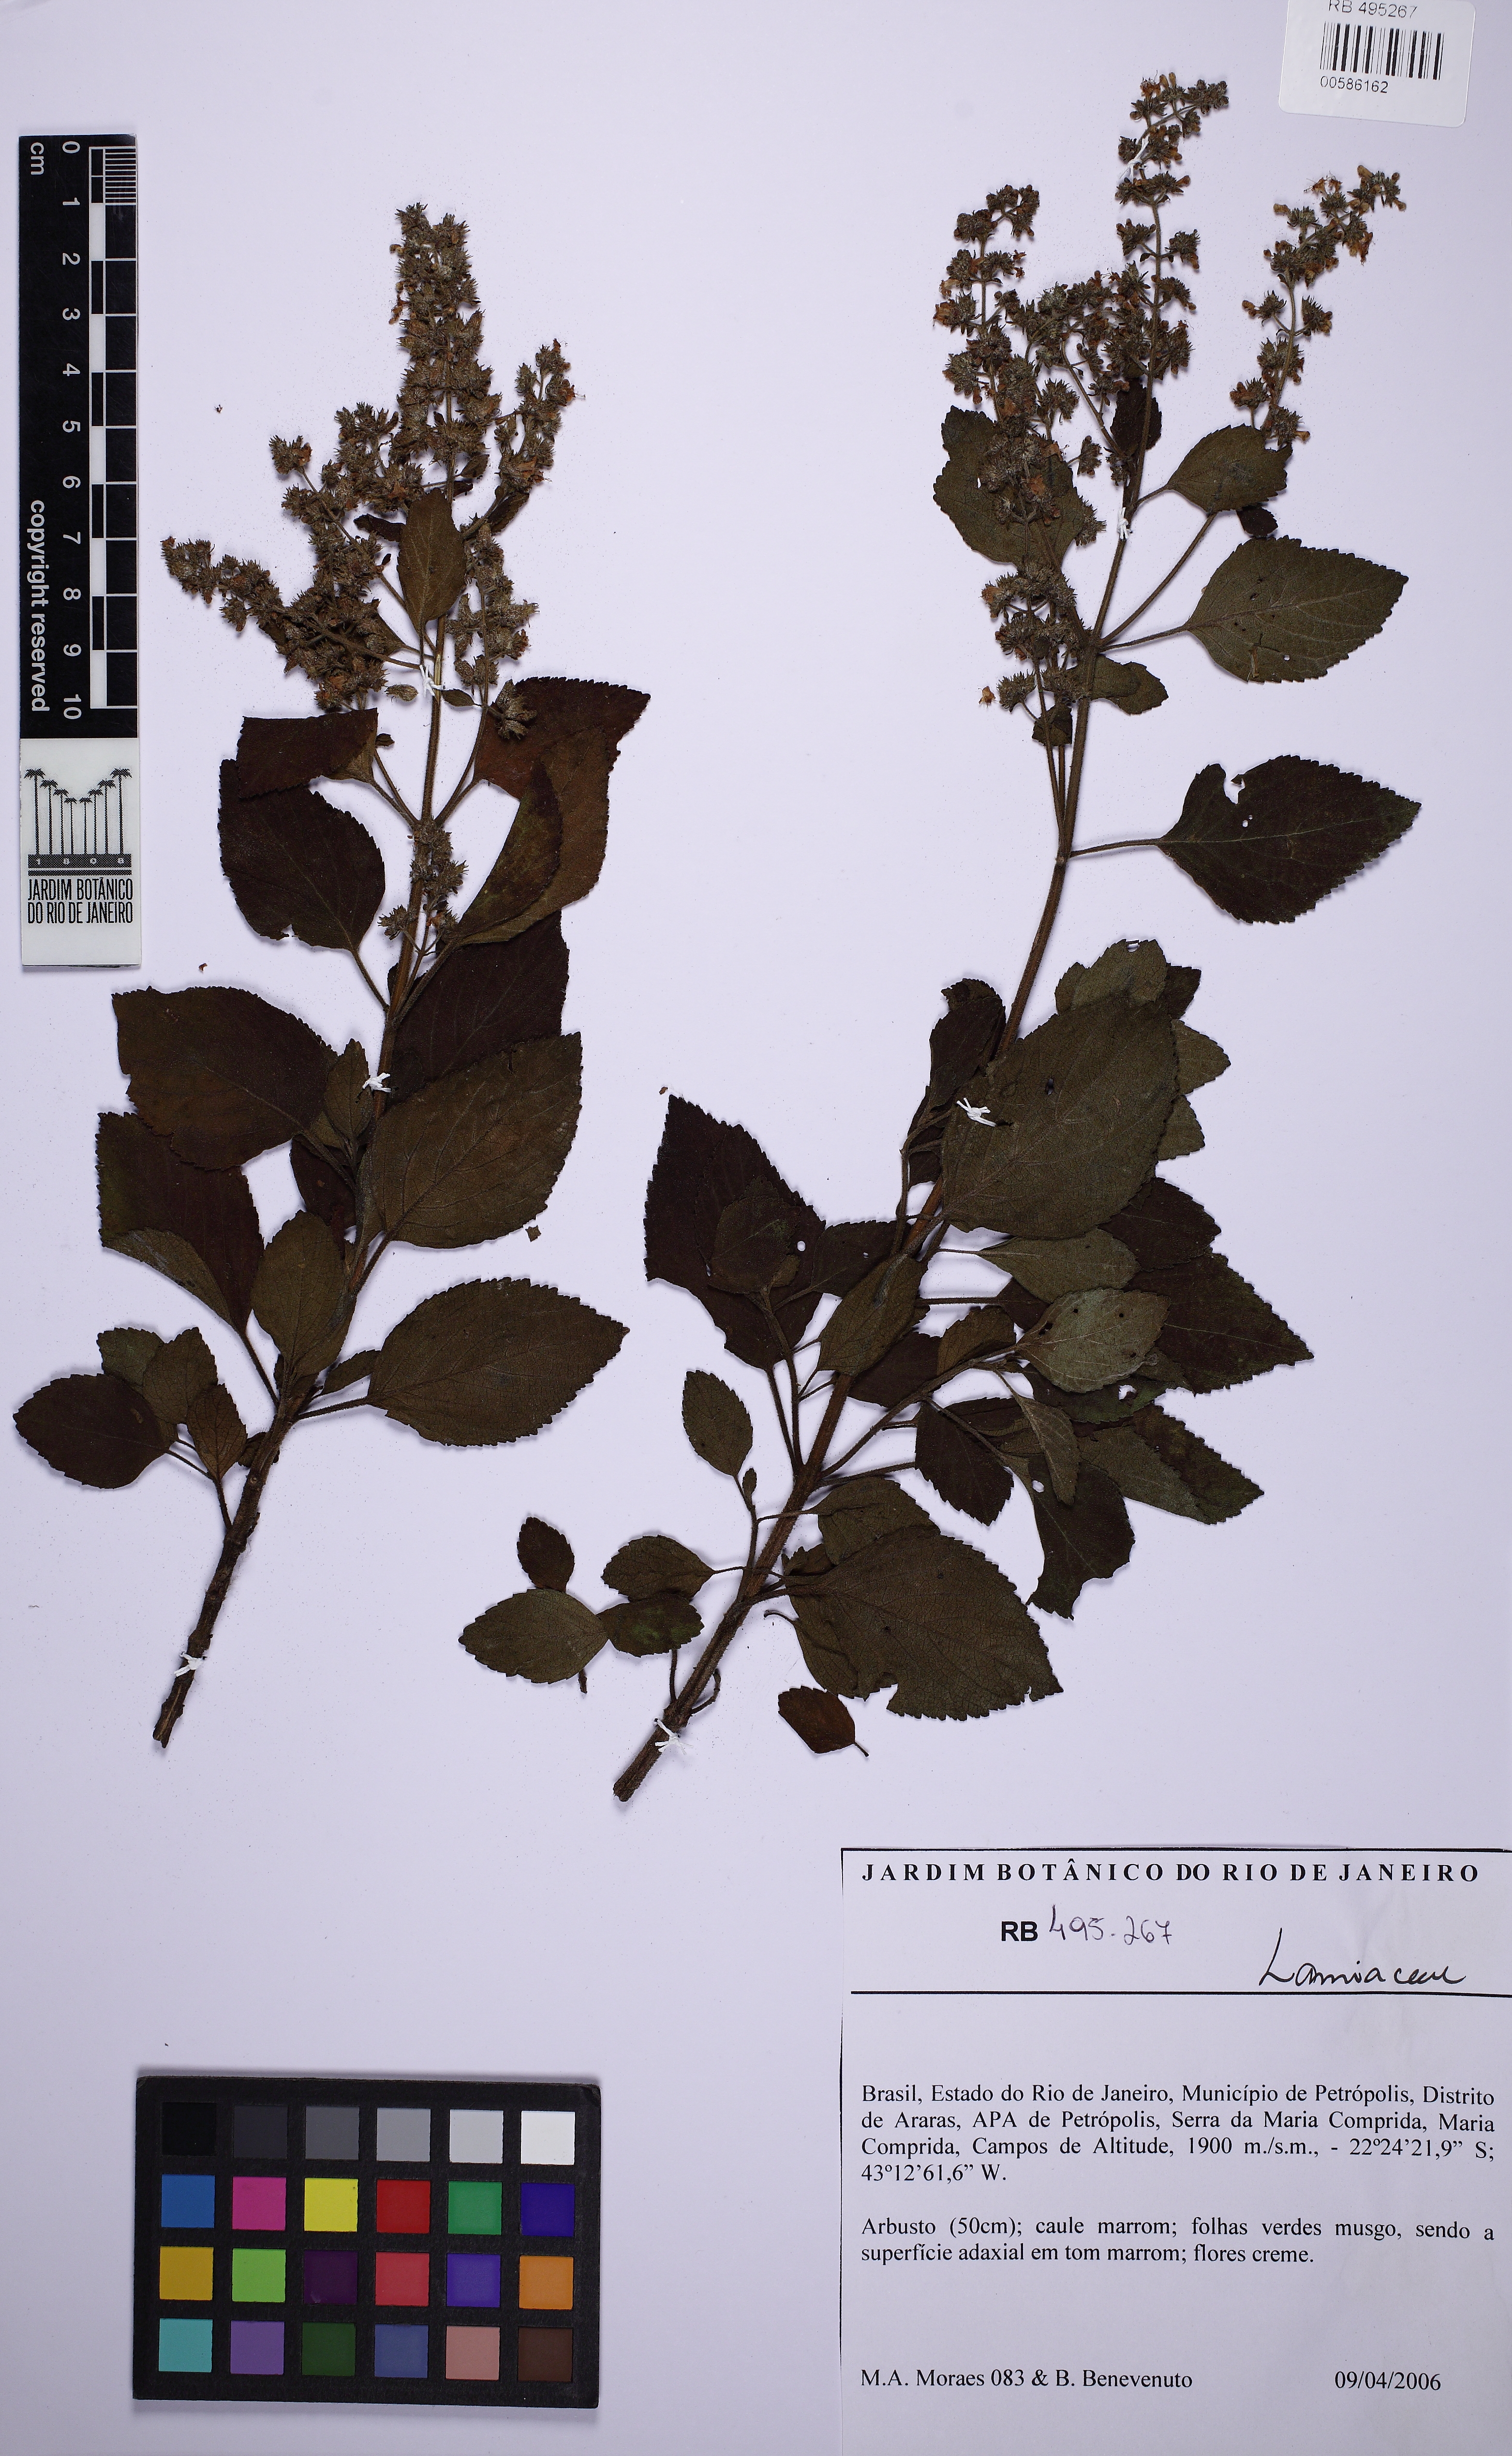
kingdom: Plantae
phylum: Tracheophyta
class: Magnoliopsida
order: Lamiales
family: Lamiaceae
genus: Cantinoa
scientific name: Cantinoa
